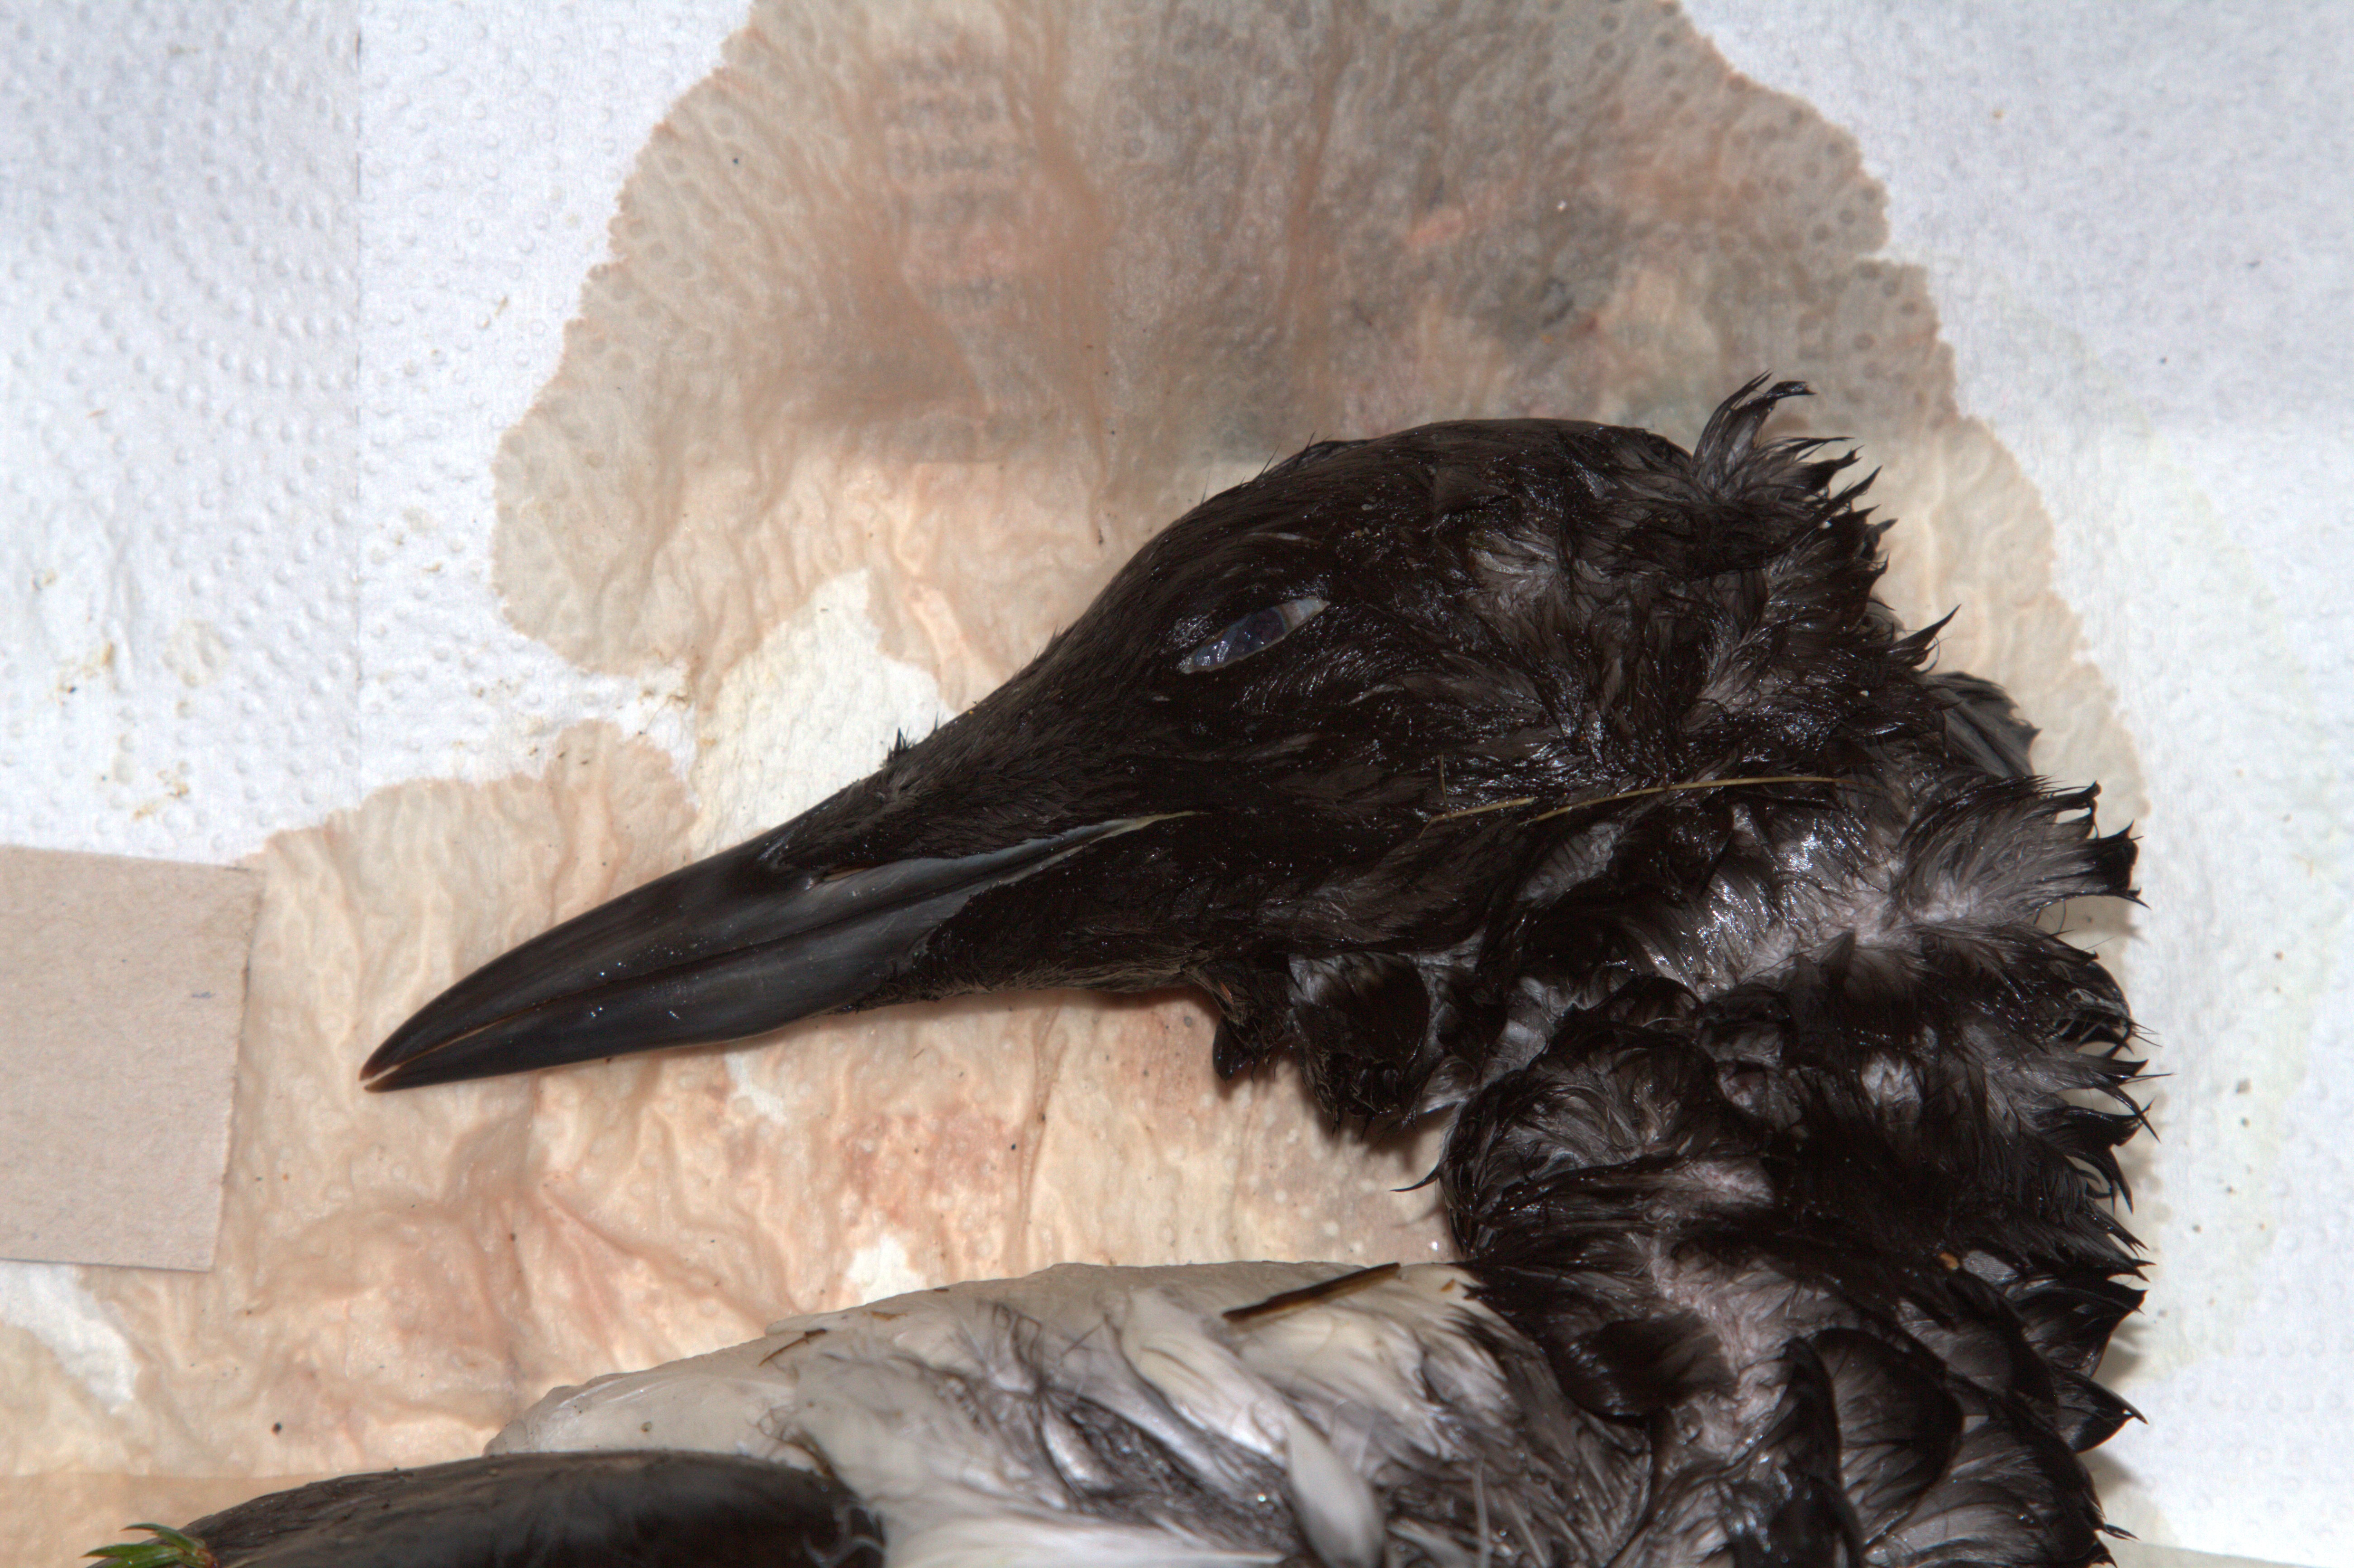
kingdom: Animalia
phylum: Chordata
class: Aves
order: Charadriiformes
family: Alcidae
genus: Uria
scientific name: Uria aalge
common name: Common murre
